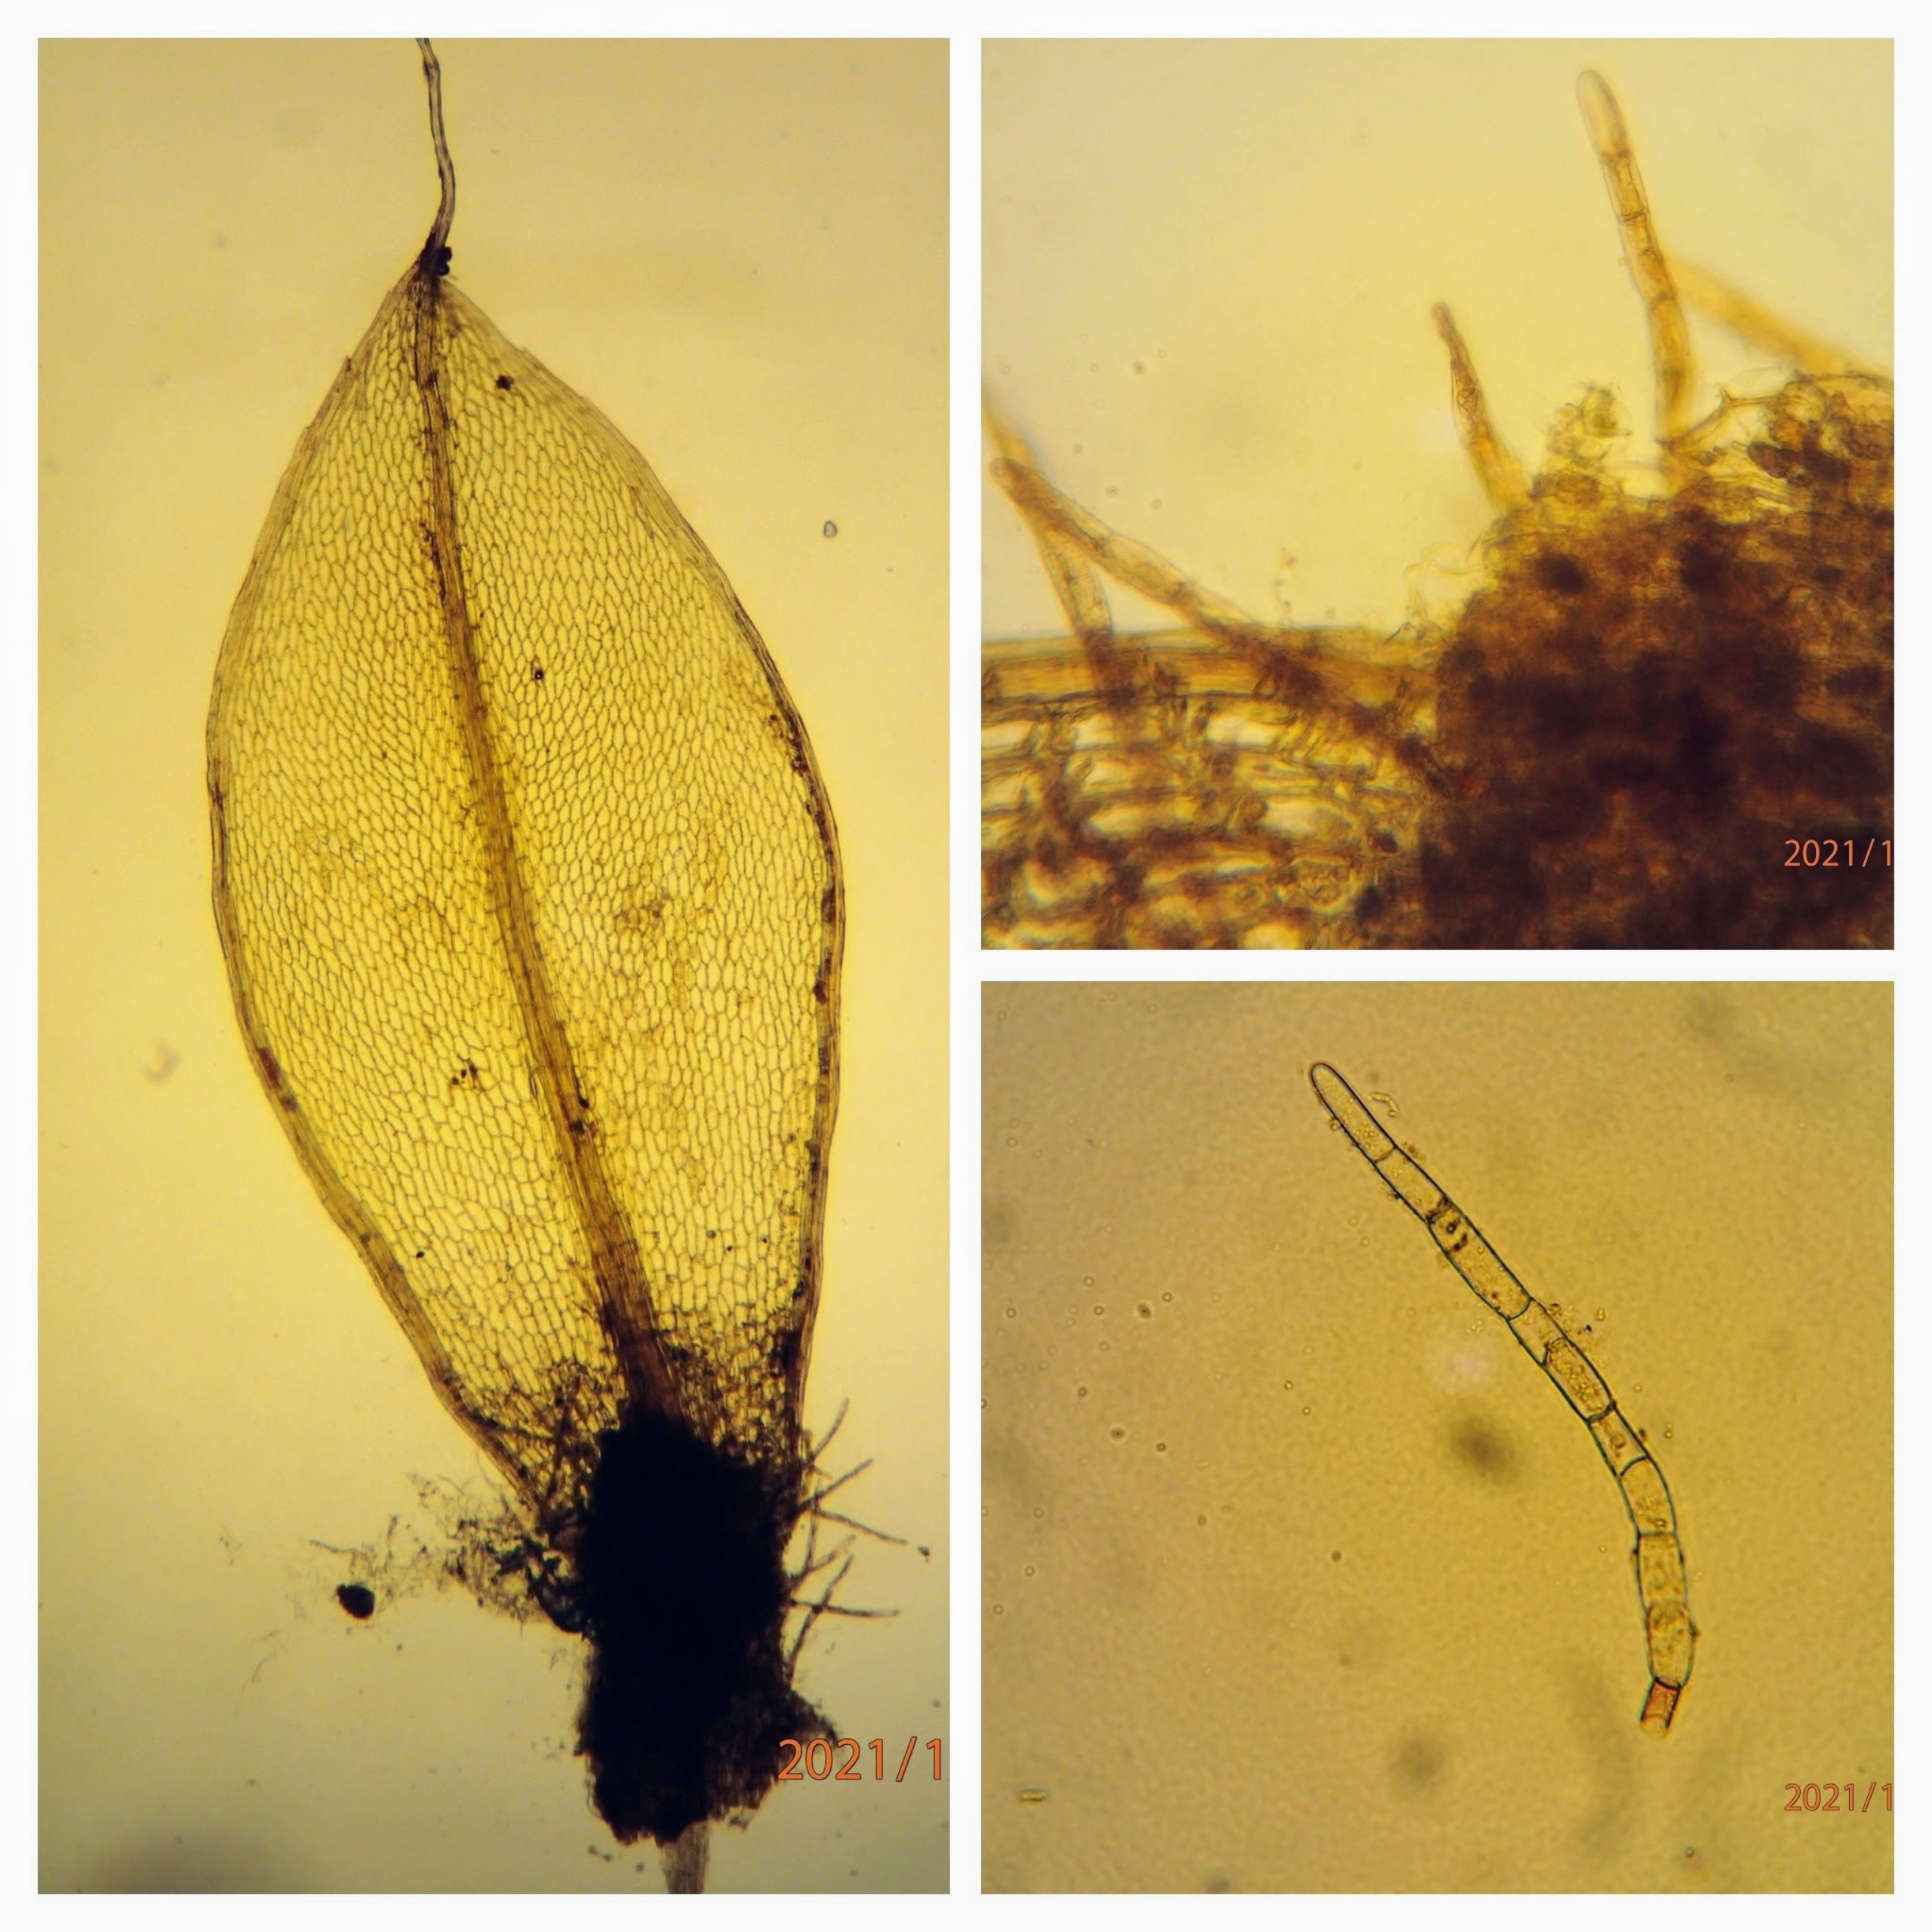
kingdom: Plantae
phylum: Bryophyta
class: Bryopsida
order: Bryales
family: Bryaceae
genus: Rosulabryum
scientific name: Rosulabryum moravicum
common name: Bark-bryum
